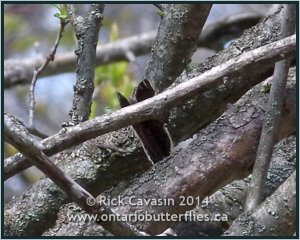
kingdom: Animalia
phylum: Arthropoda
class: Insecta
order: Lepidoptera
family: Nymphalidae
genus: Nymphalis
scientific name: Nymphalis antiopa
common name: Mourning Cloak
